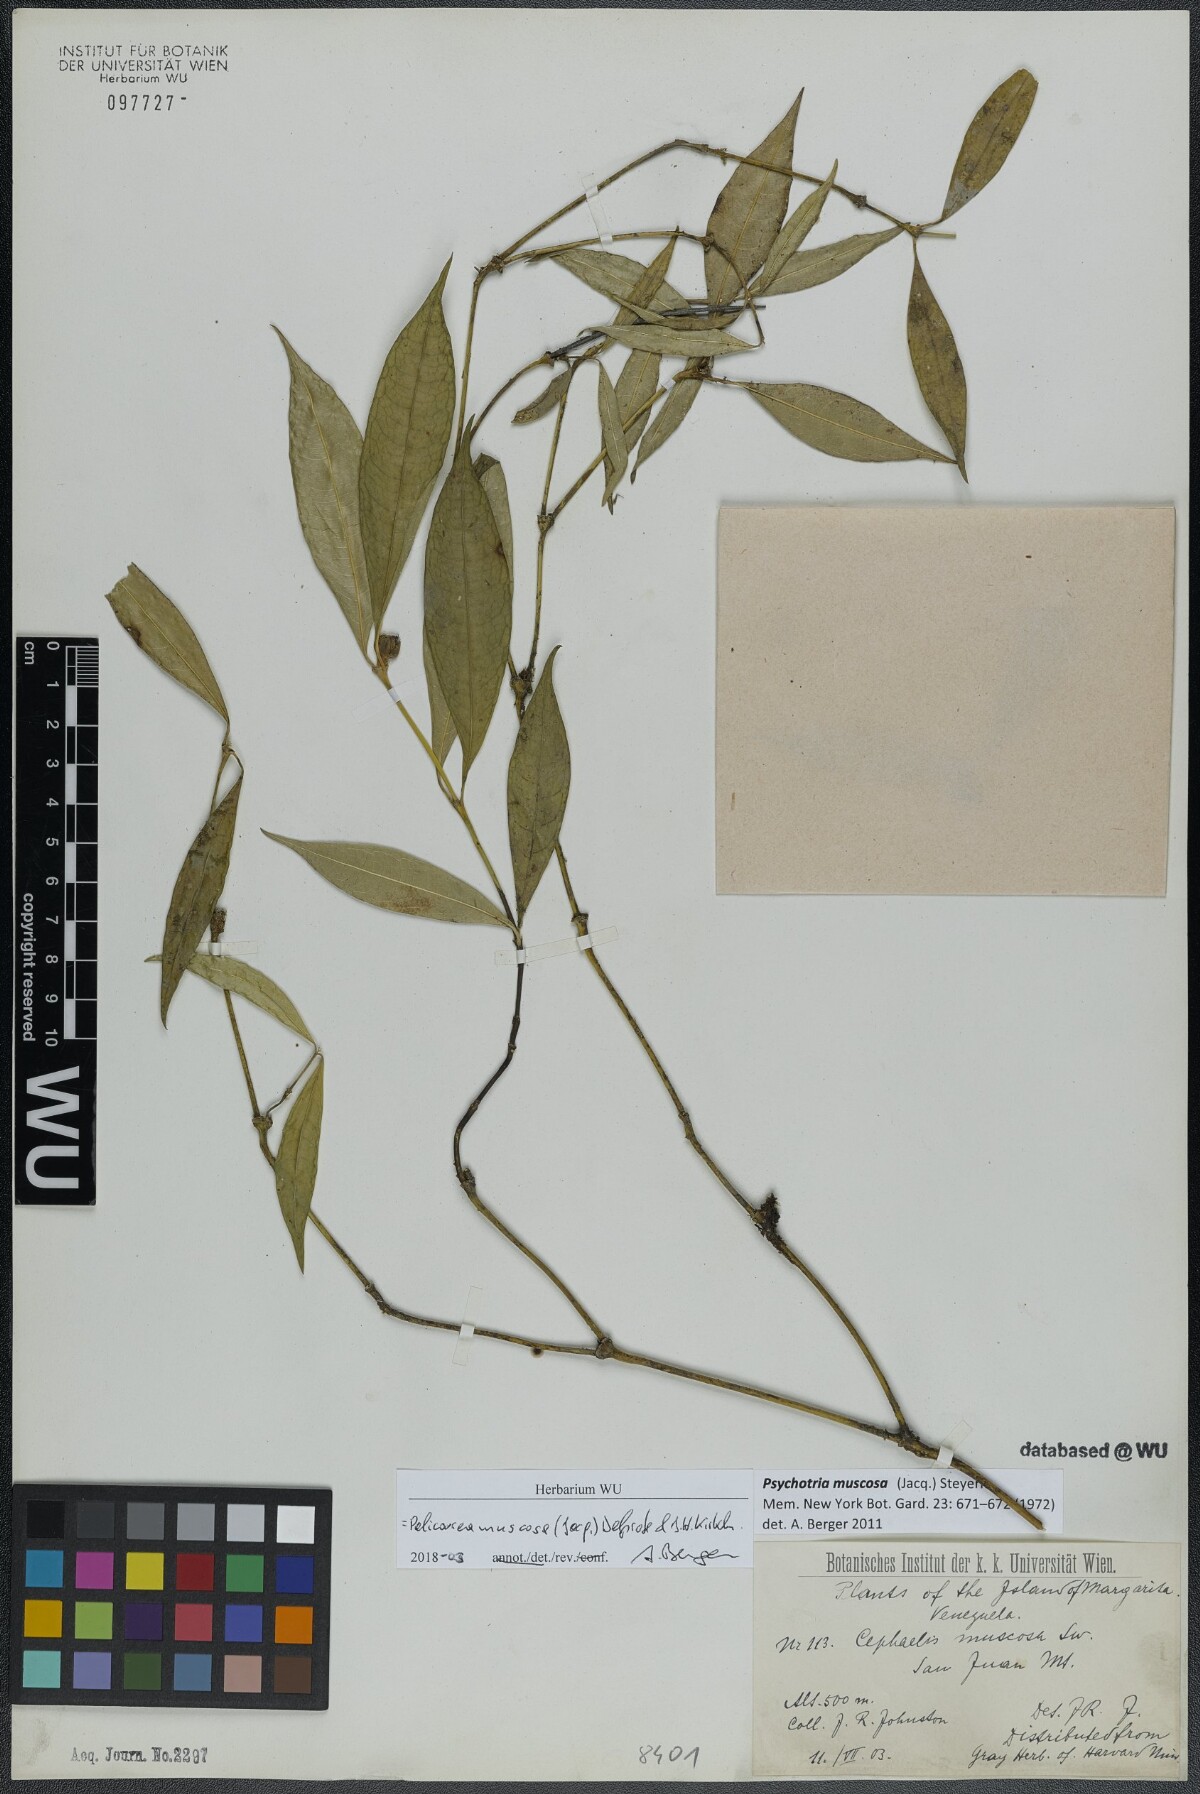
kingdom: Plantae
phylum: Tracheophyta
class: Magnoliopsida
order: Gentianales
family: Rubiaceae
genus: Palicourea
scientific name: Palicourea muscosa
